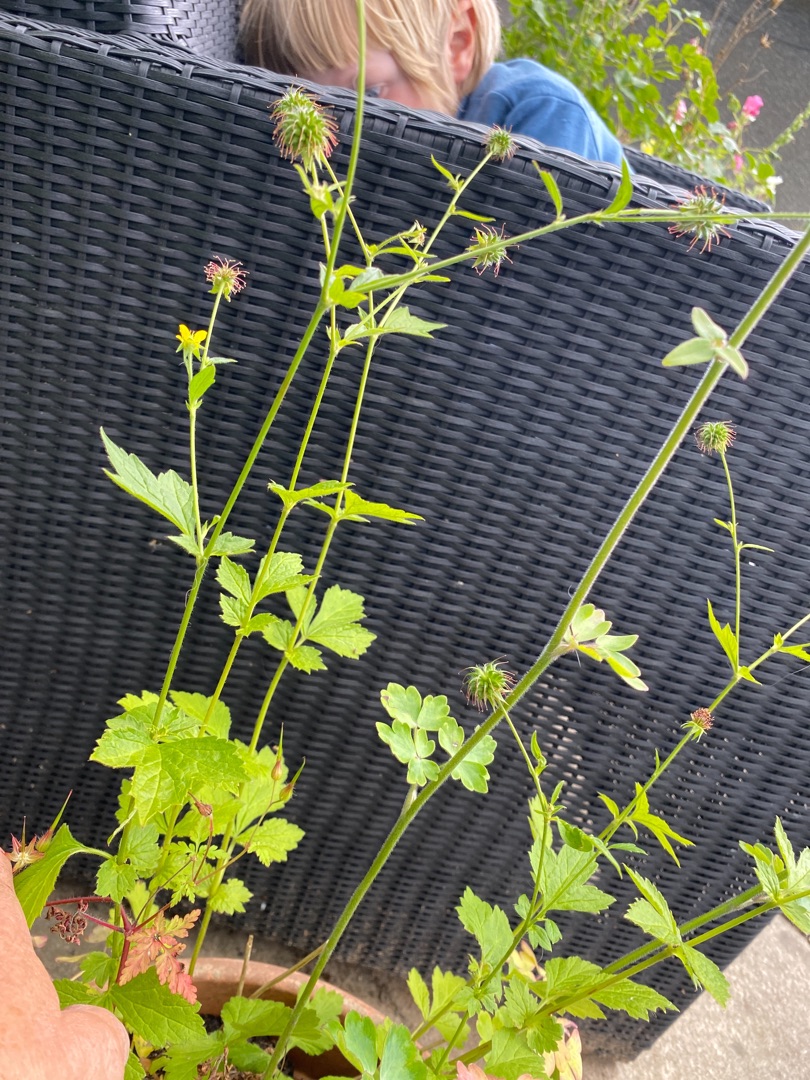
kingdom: Plantae
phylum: Tracheophyta
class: Magnoliopsida
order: Rosales
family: Rosaceae
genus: Geum
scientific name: Geum urbanum
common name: Feber-nellikerod
